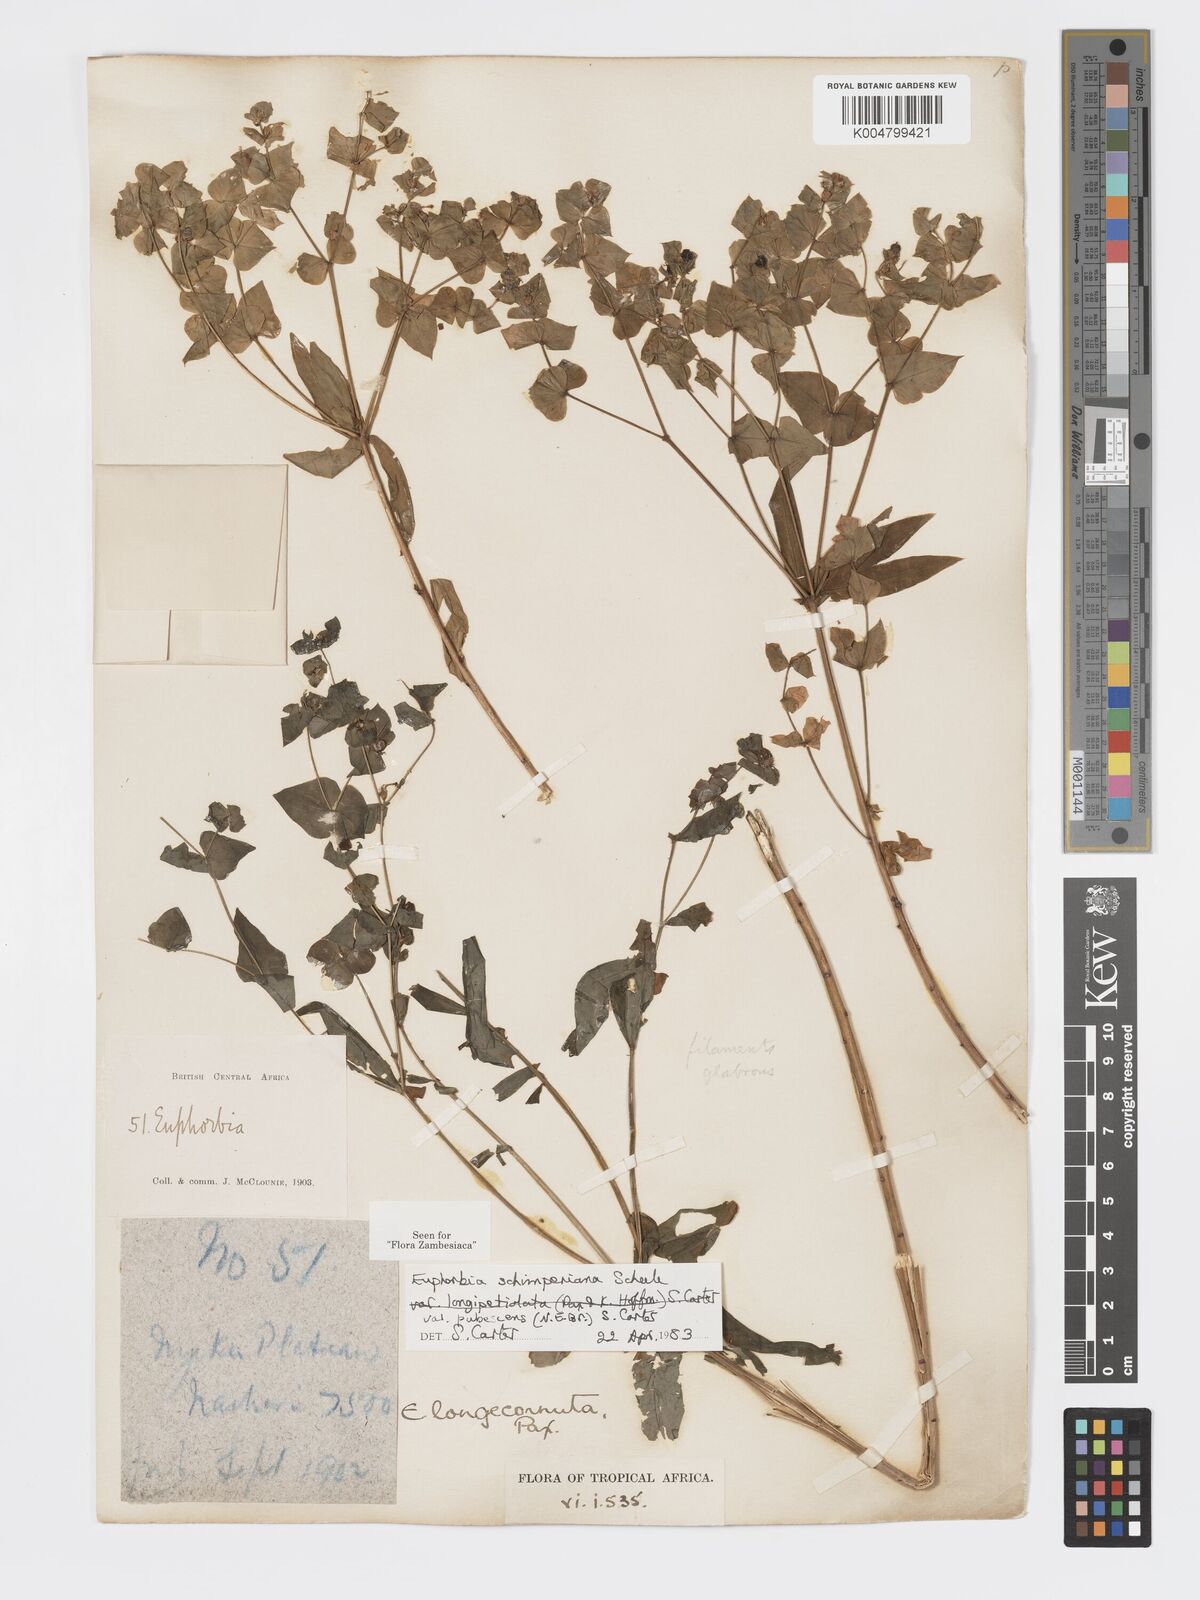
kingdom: Plantae
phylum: Tracheophyta
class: Magnoliopsida
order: Malpighiales
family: Euphorbiaceae
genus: Euphorbia
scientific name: Euphorbia schimperiana
